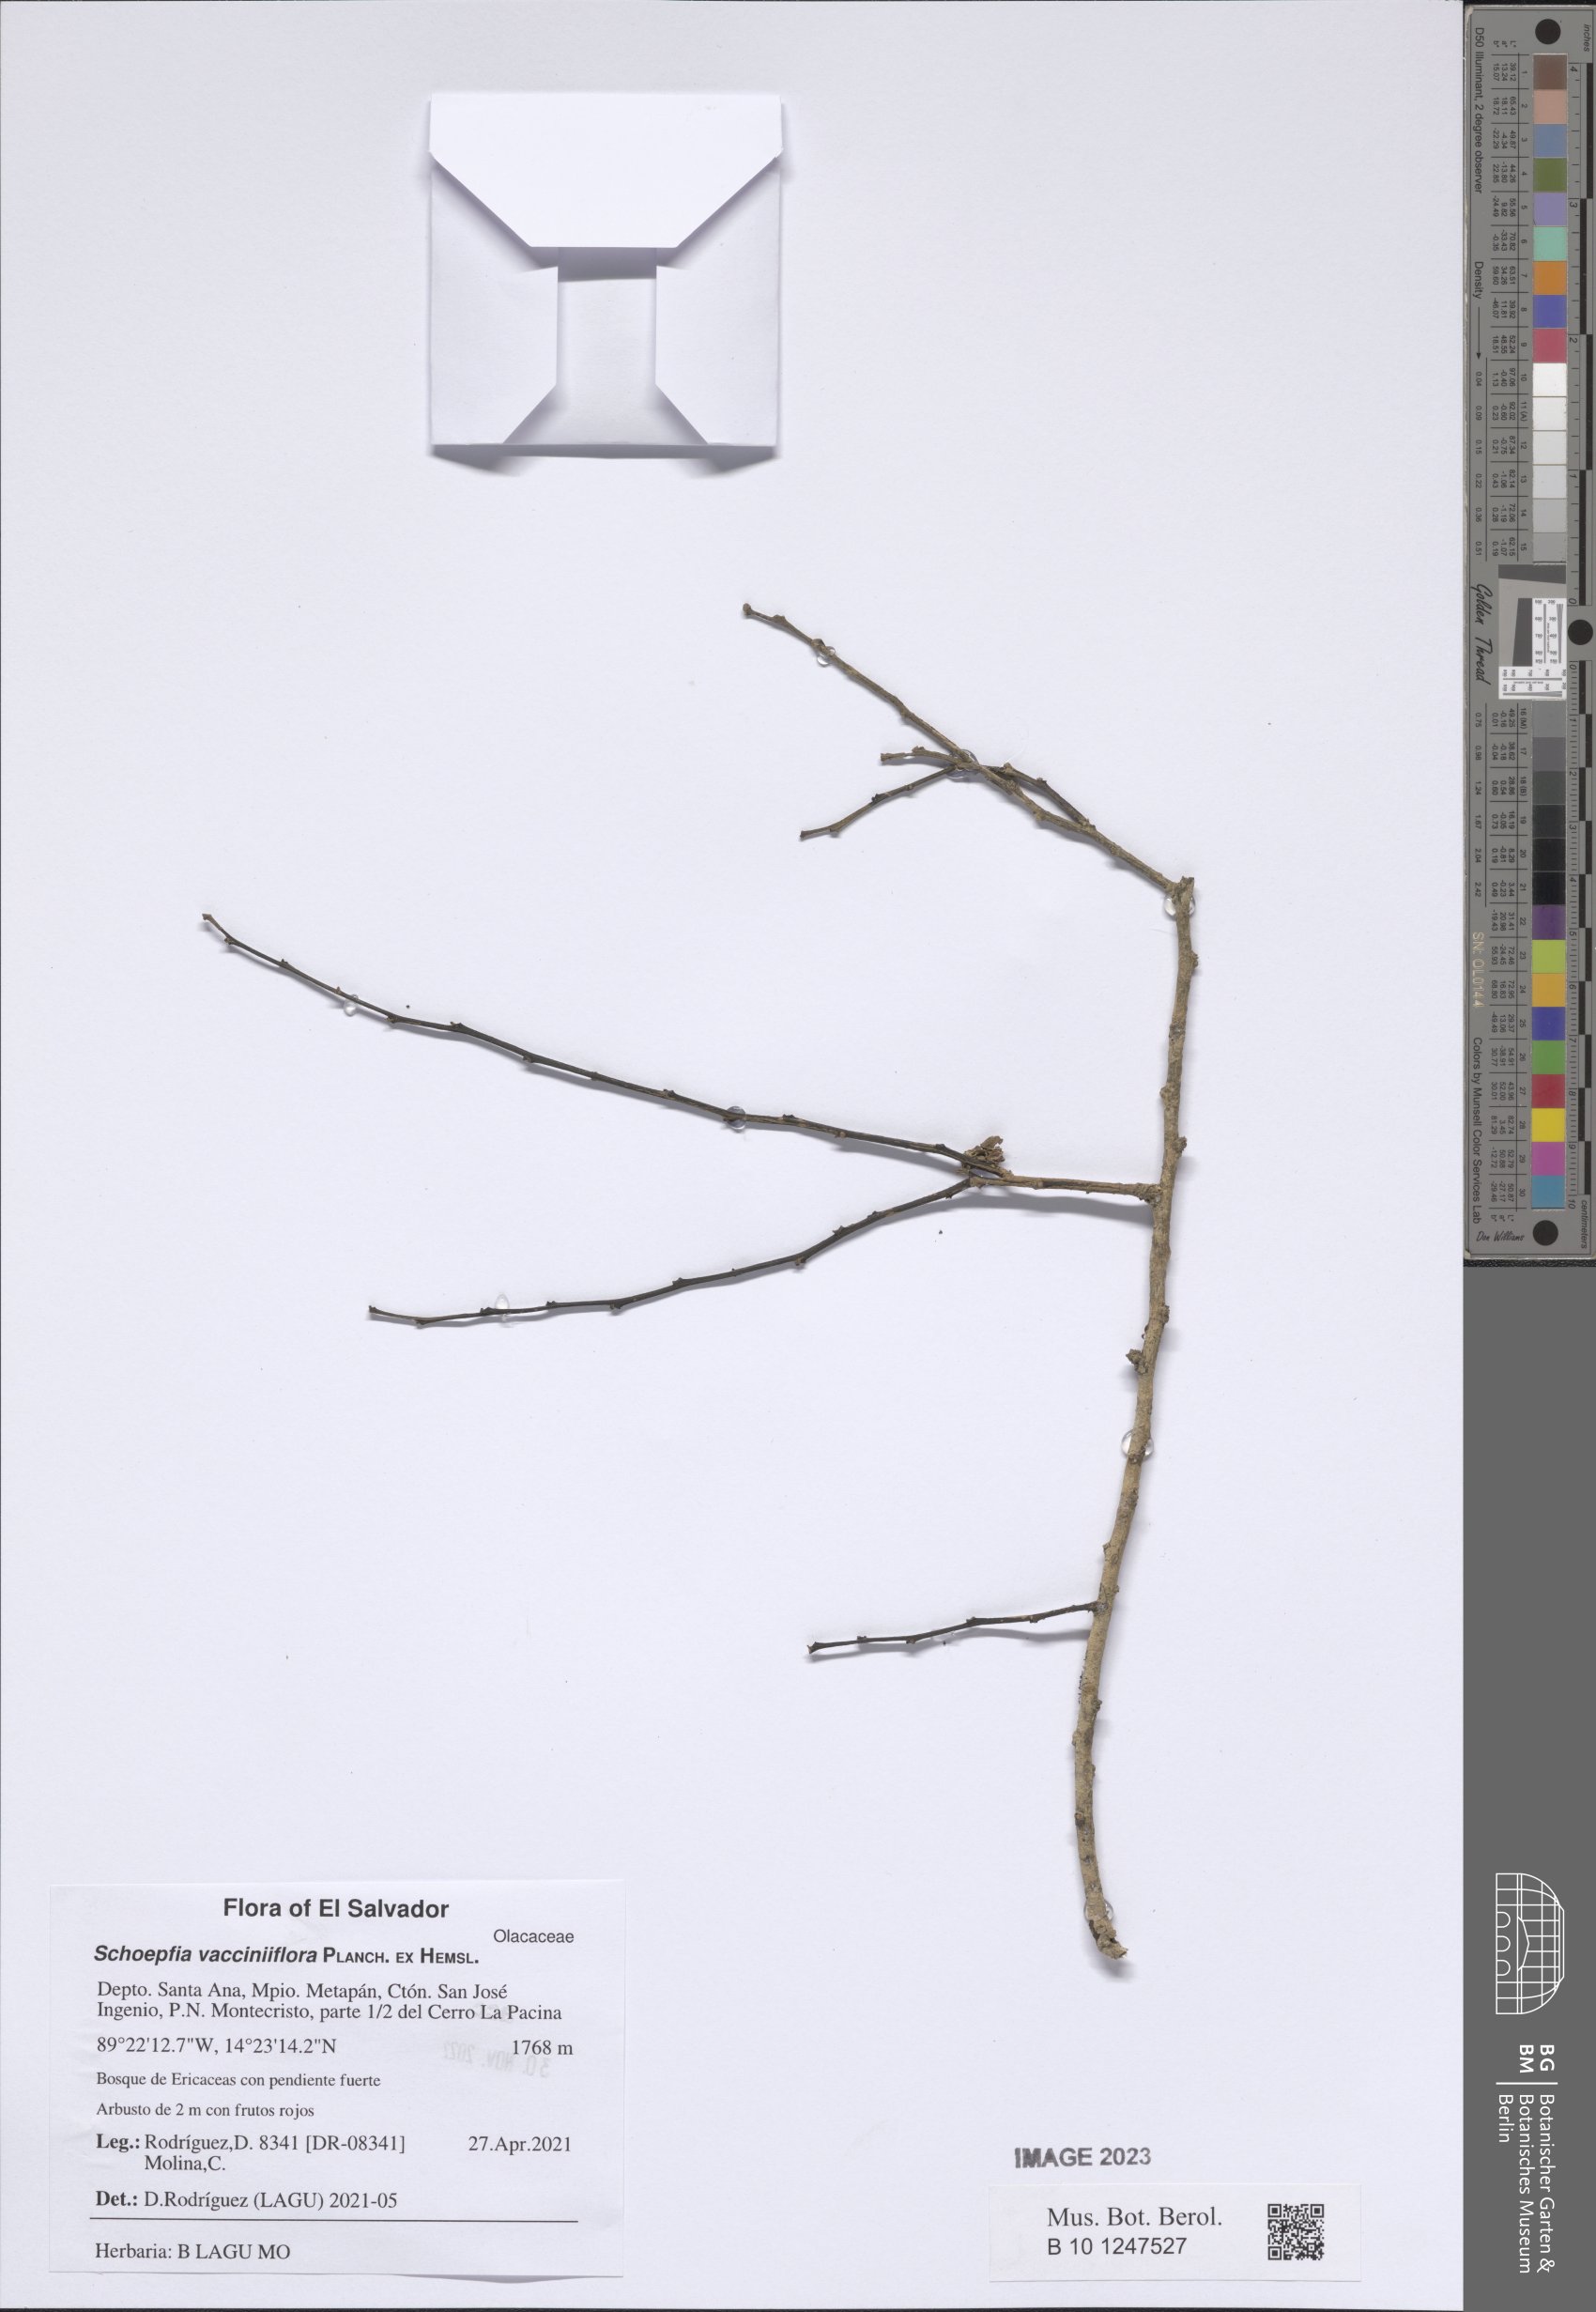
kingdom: Plantae
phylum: Tracheophyta
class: Magnoliopsida
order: Santalales
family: Schoepfiaceae
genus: Schoepfia
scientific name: Schoepfia vacciniiflora
